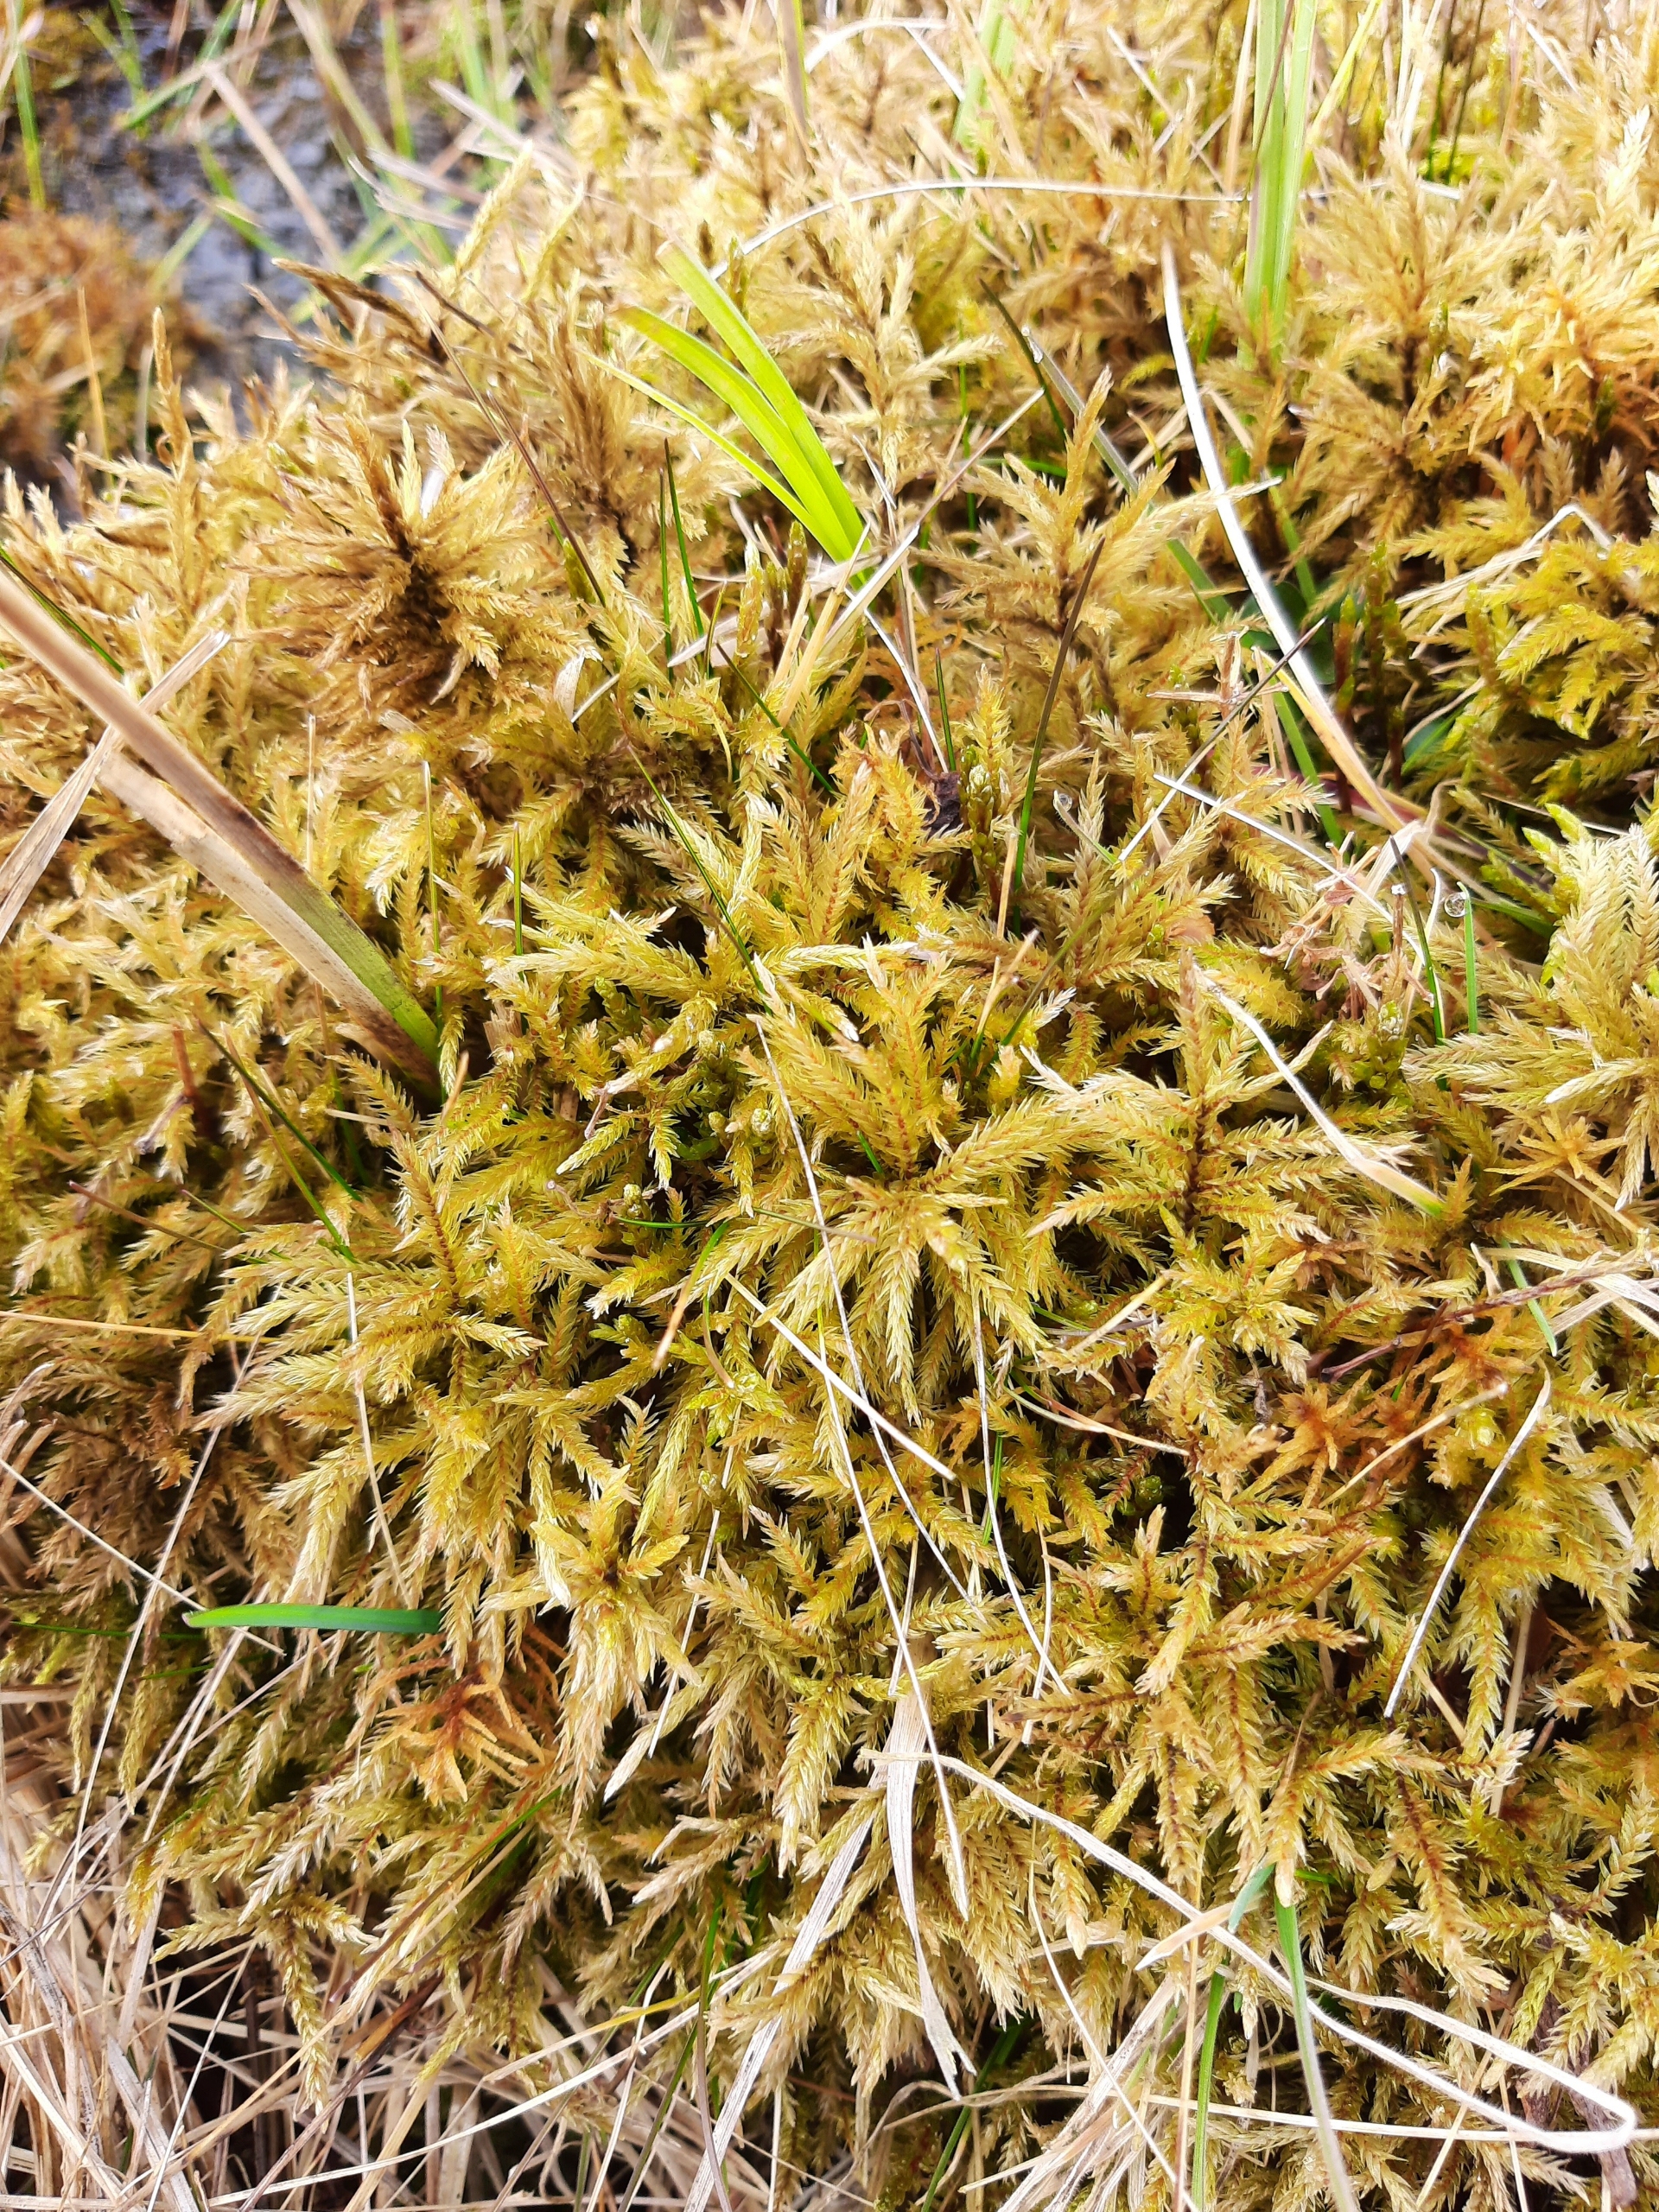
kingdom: Plantae
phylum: Bryophyta
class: Bryopsida
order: Hypnales
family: Climaciaceae
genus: Climacium
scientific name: Climacium dendroides
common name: Stor engkost
